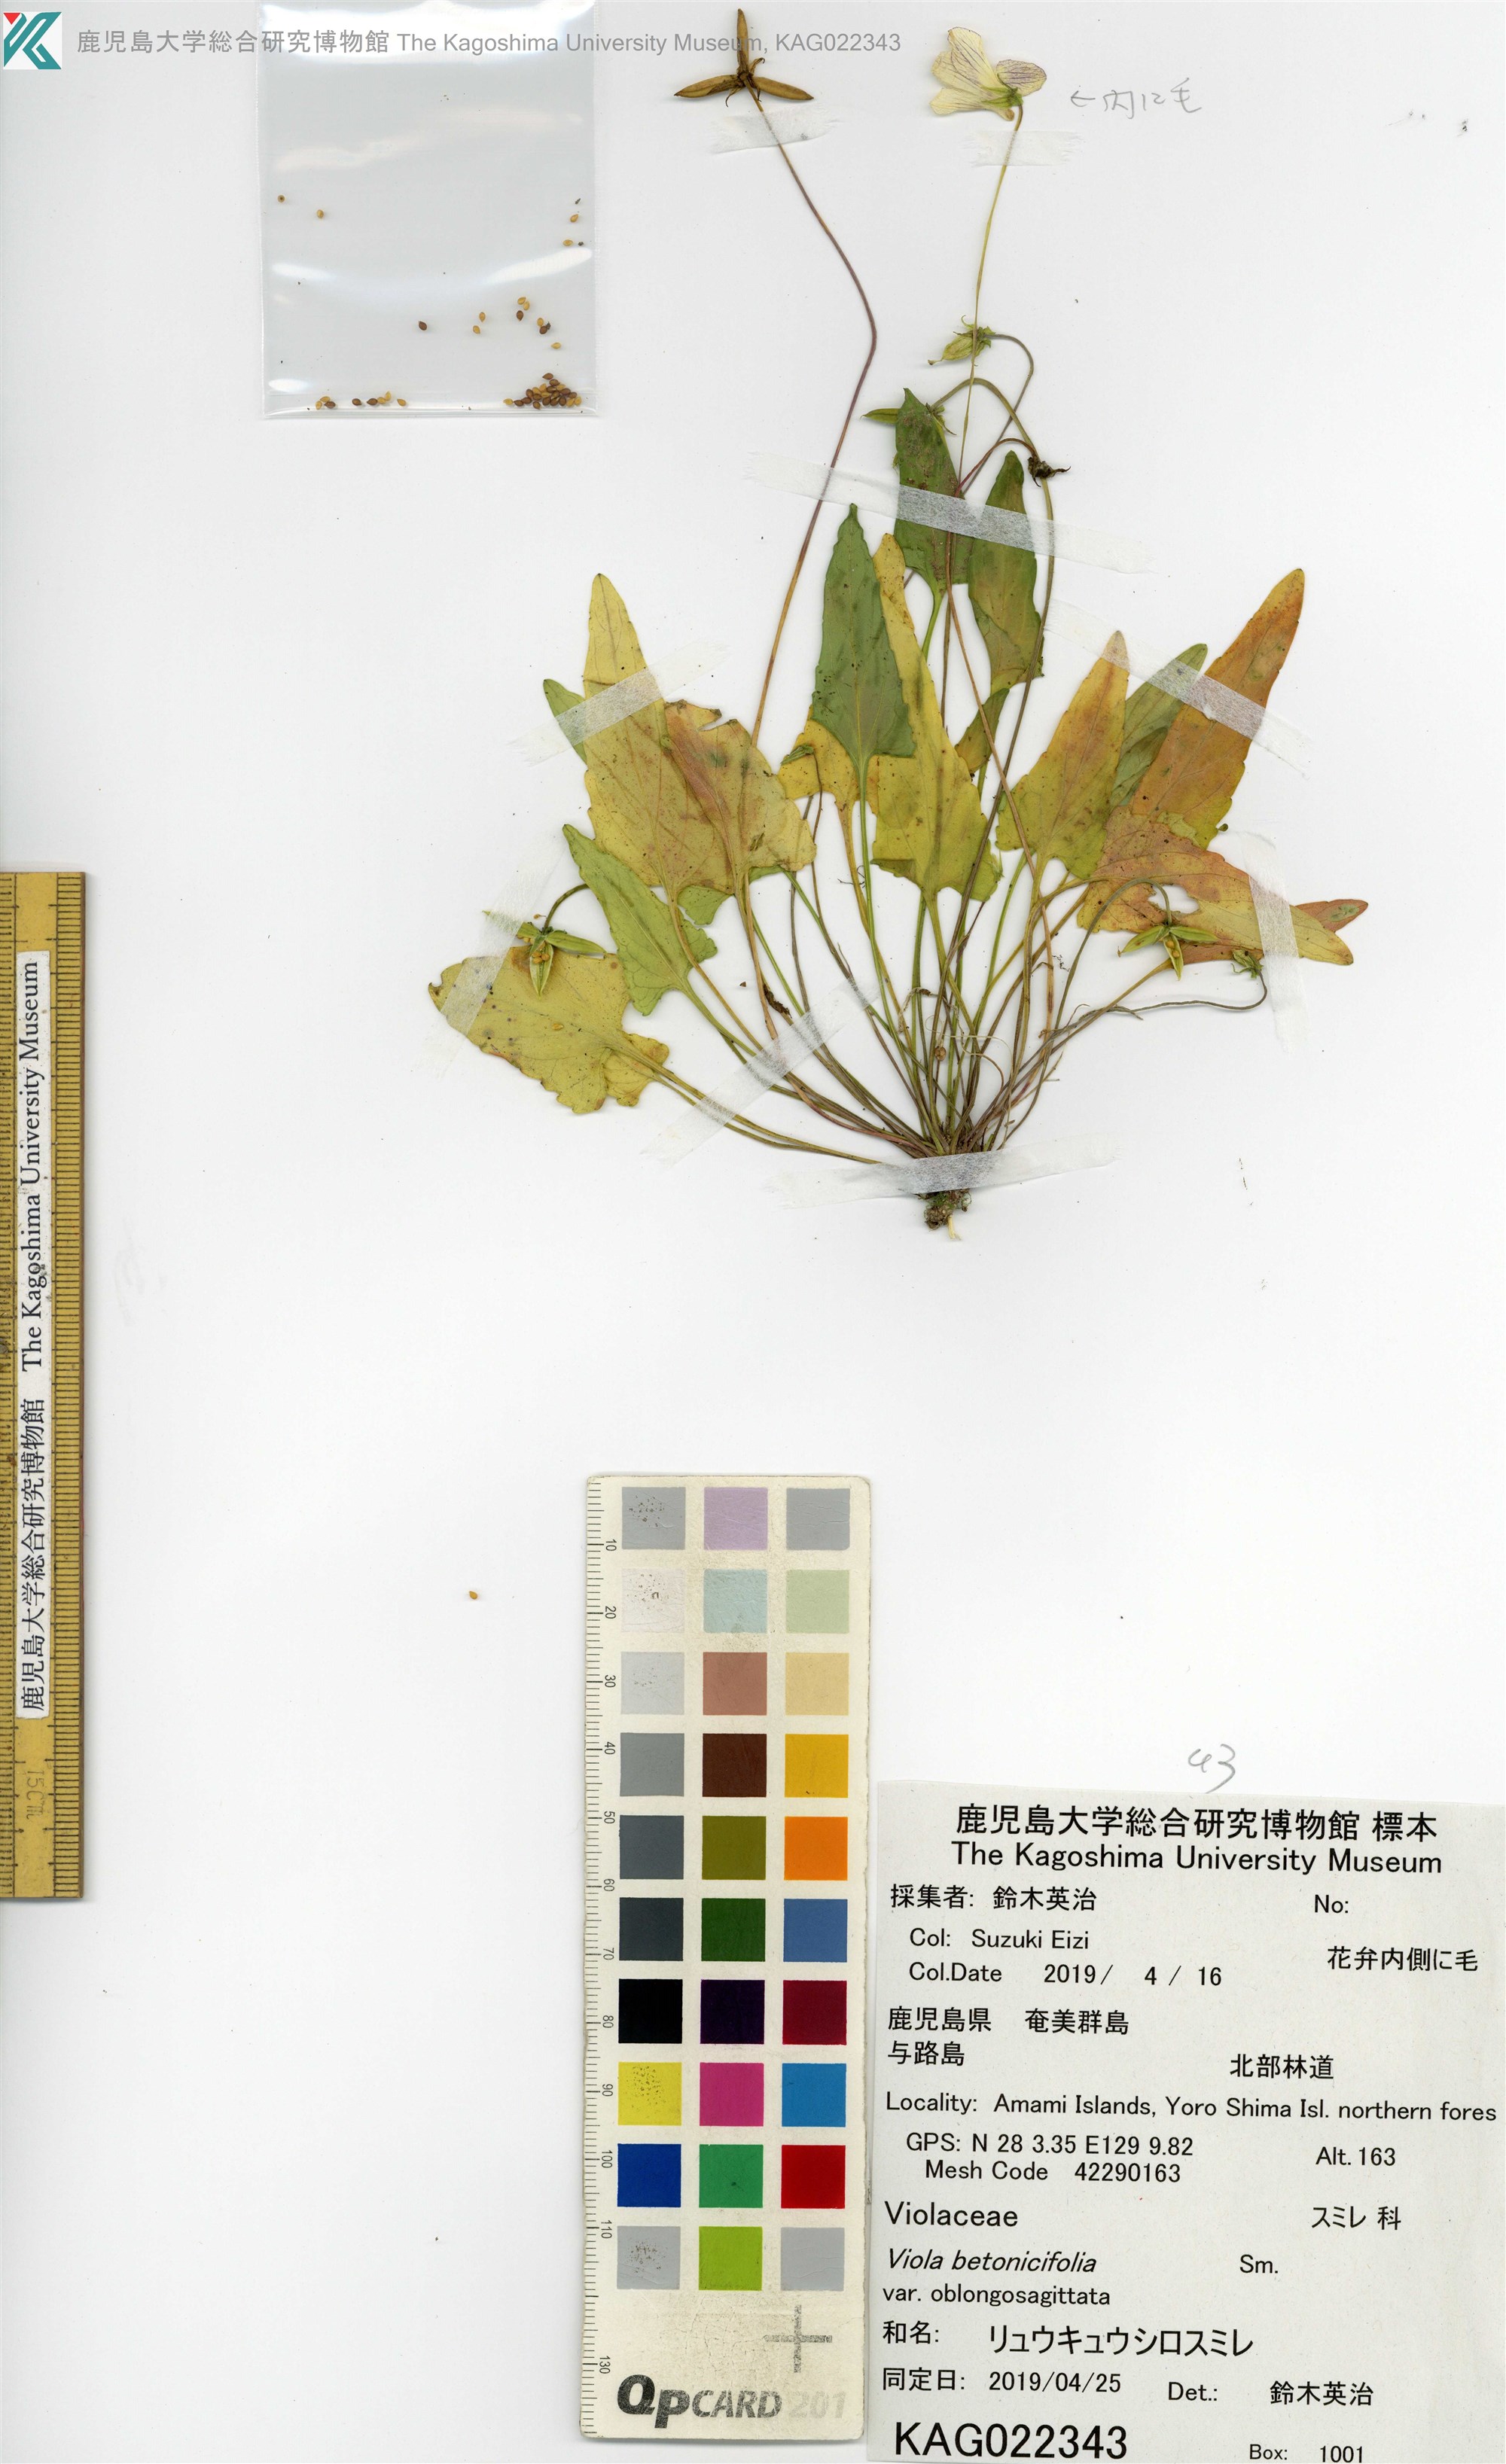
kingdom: Plantae
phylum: Tracheophyta
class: Magnoliopsida
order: Malpighiales
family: Violaceae
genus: Viola
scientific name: Viola inconspicua
